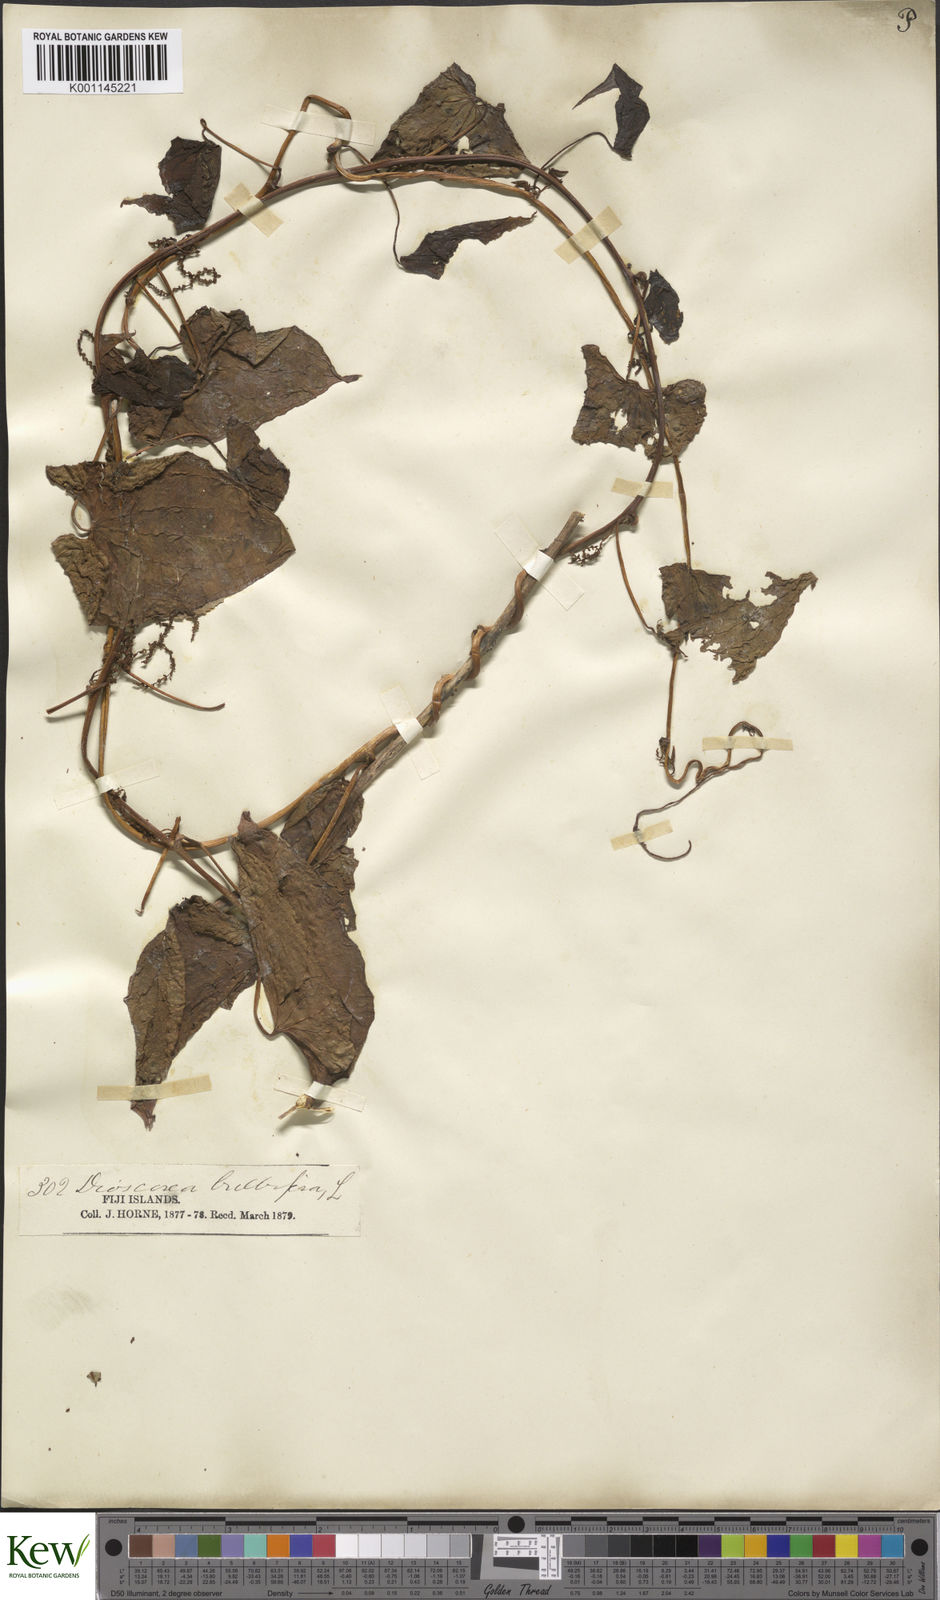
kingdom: Plantae
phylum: Tracheophyta
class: Liliopsida
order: Dioscoreales
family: Dioscoreaceae
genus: Dioscorea
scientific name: Dioscorea bulbifera
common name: Air yam
